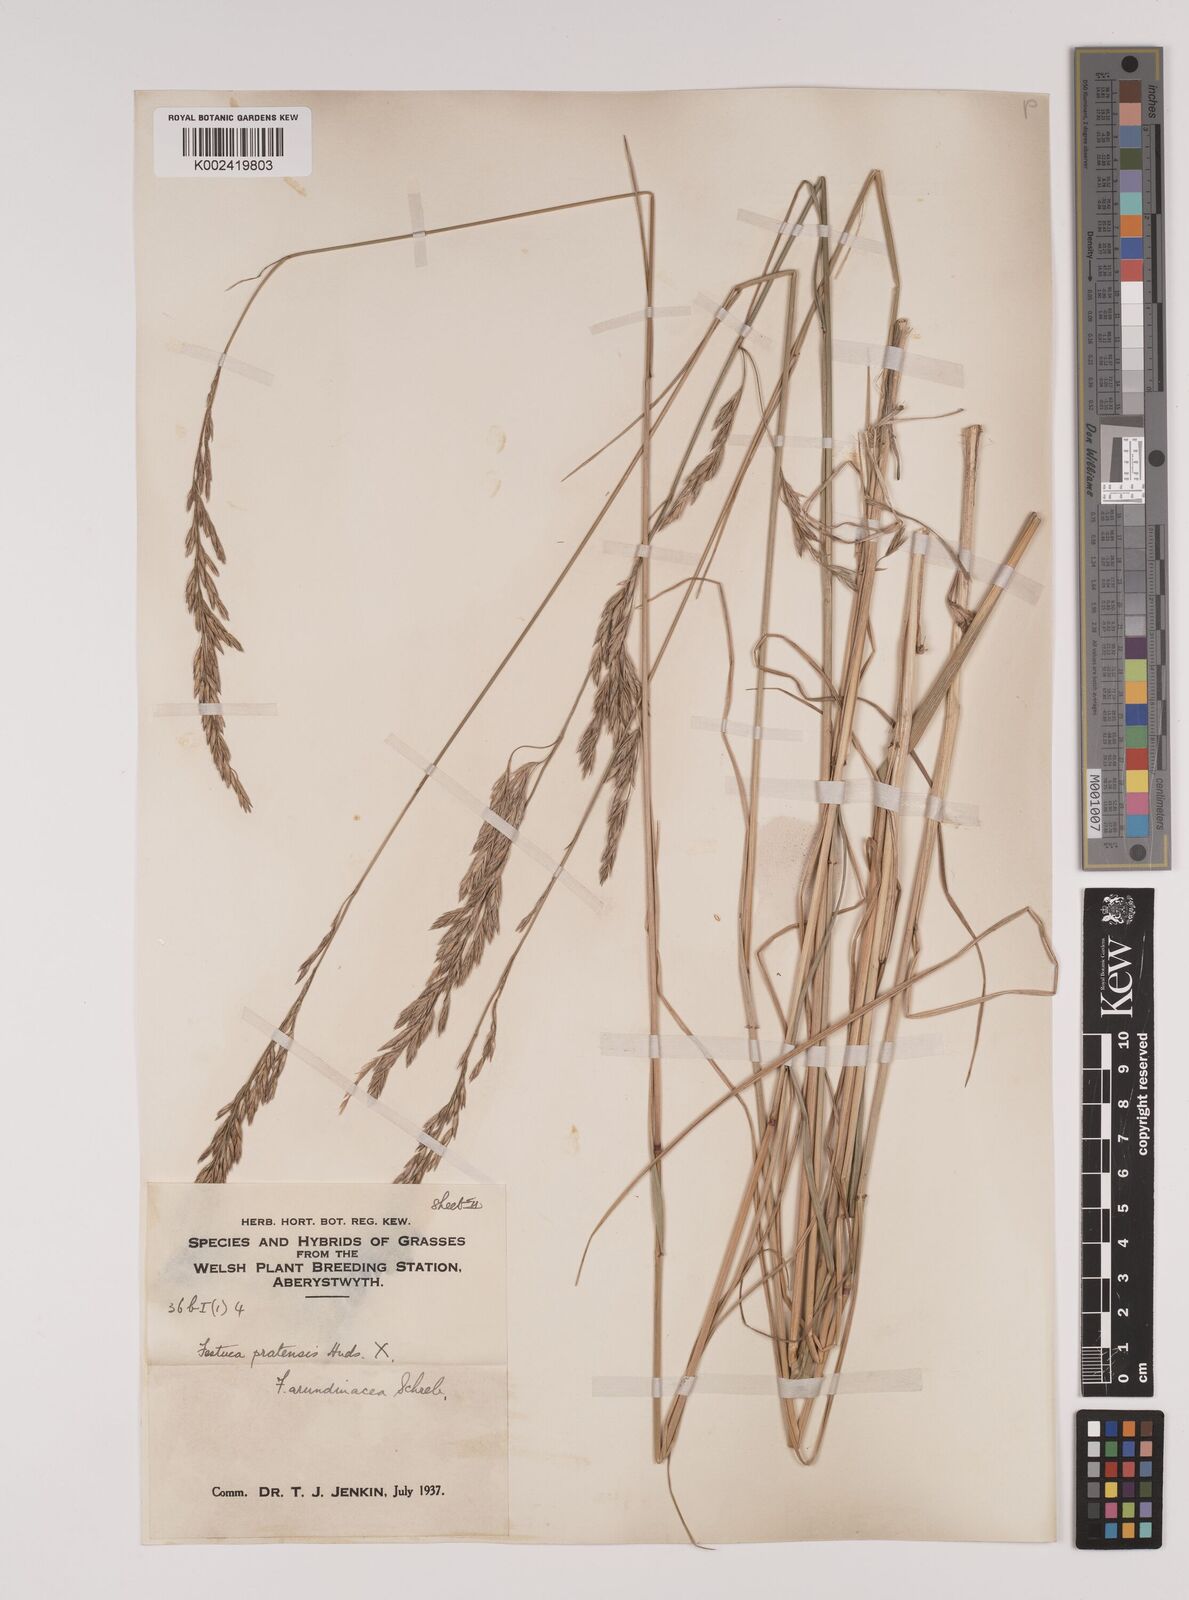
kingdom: Plantae
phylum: Tracheophyta
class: Liliopsida
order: Poales
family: Poaceae
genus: Festuca
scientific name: Festuca rubra
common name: Red fescue
